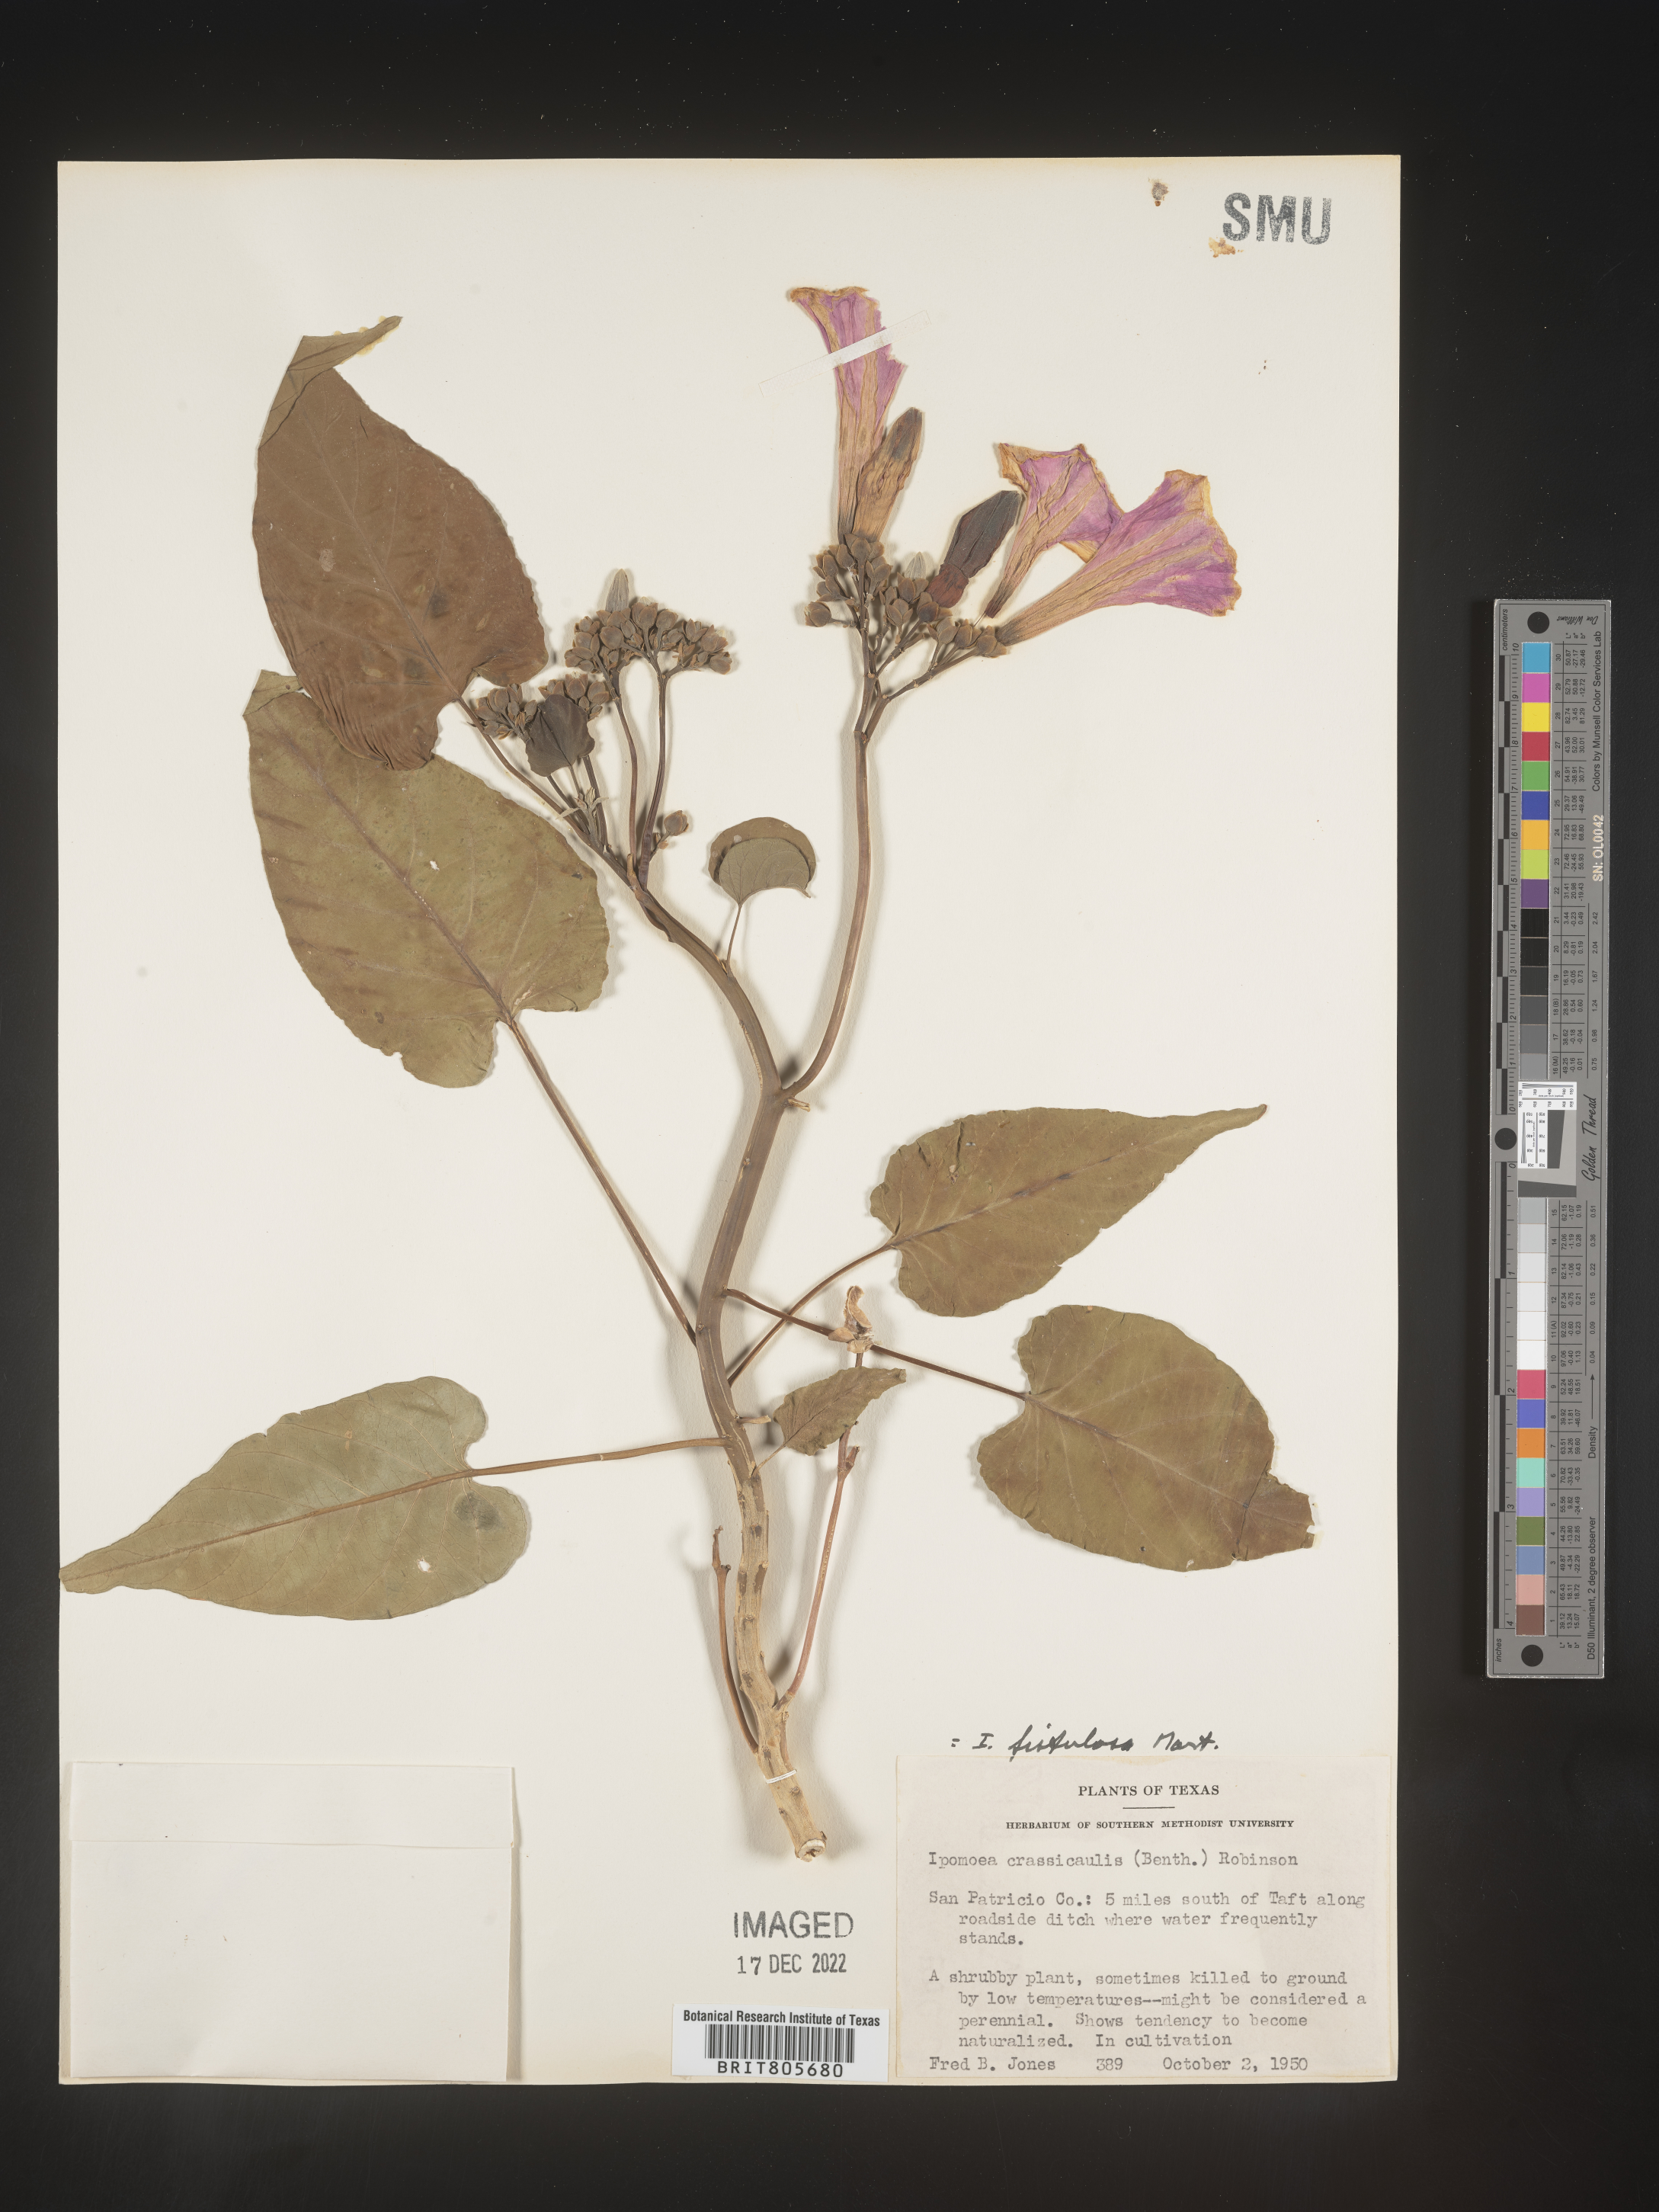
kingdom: Plantae
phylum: Tracheophyta
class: Magnoliopsida
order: Solanales
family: Convolvulaceae
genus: Ipomoea
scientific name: Ipomoea carnea
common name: Morning-glory
